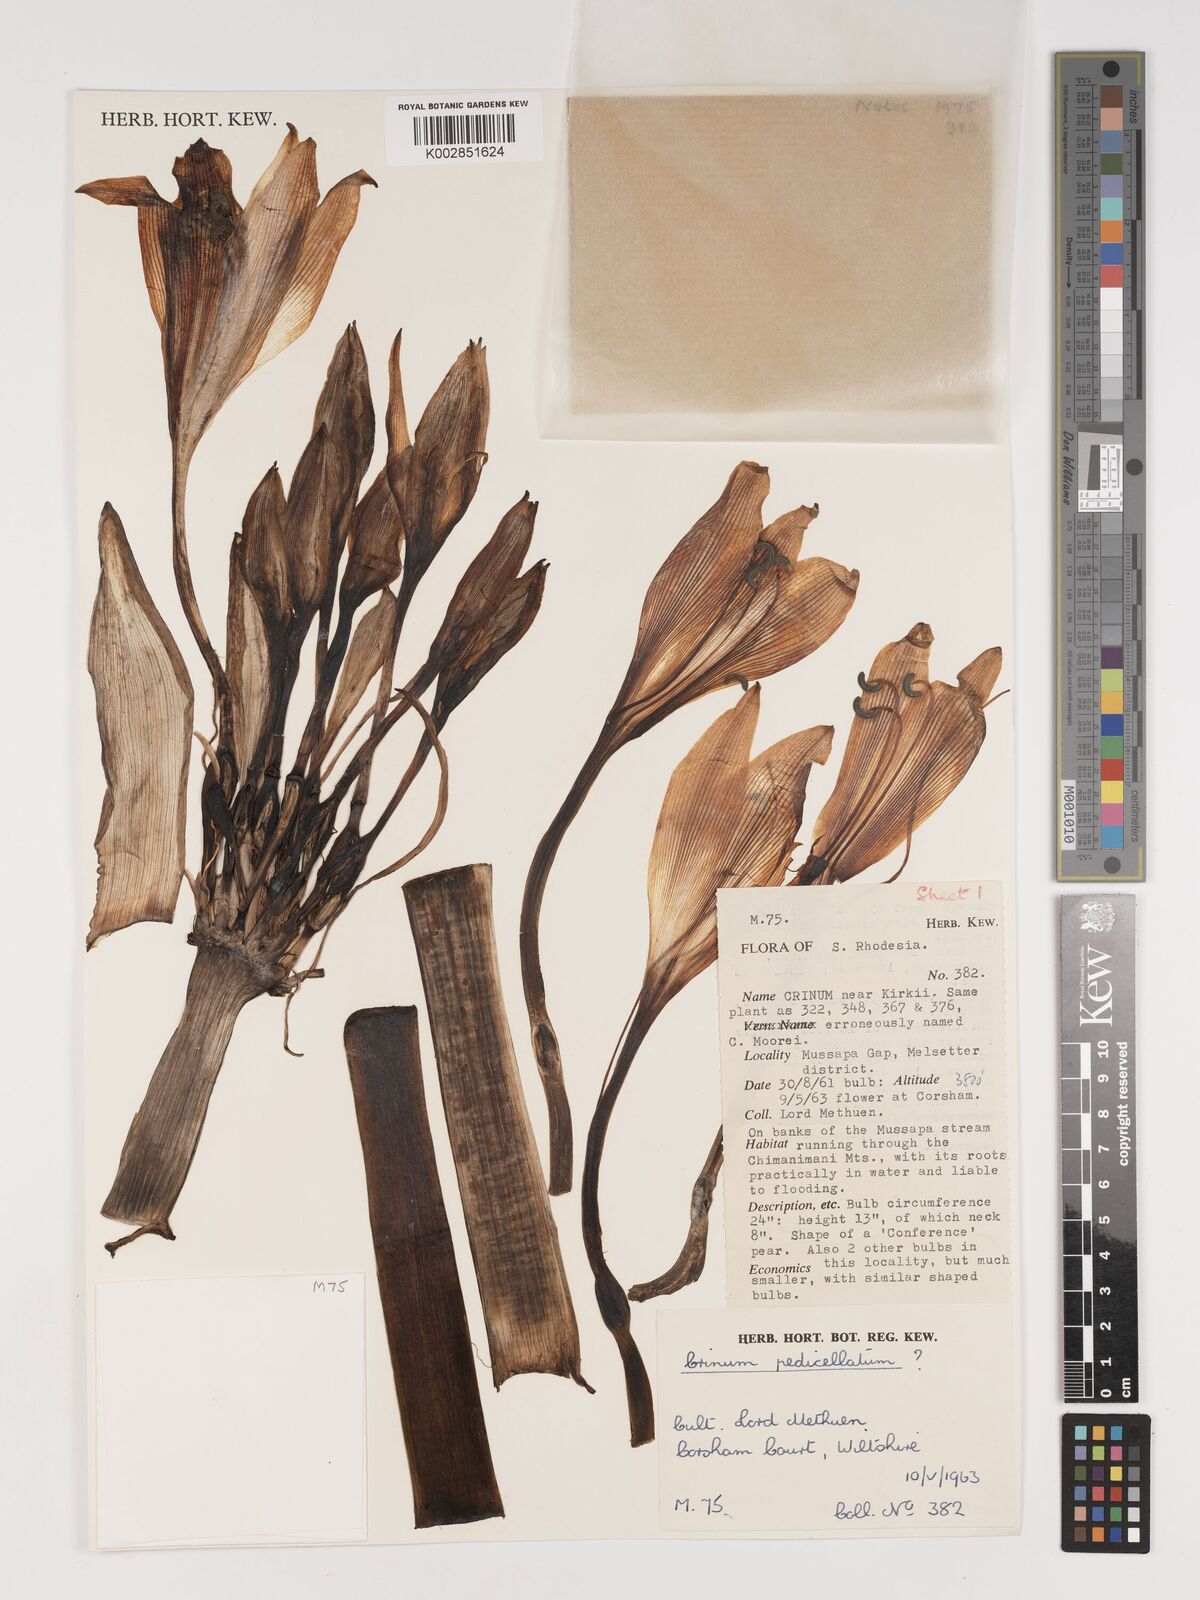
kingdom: Plantae
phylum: Tracheophyta
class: Liliopsida
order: Asparagales
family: Amaryllidaceae
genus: Crinum
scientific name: Crinum
